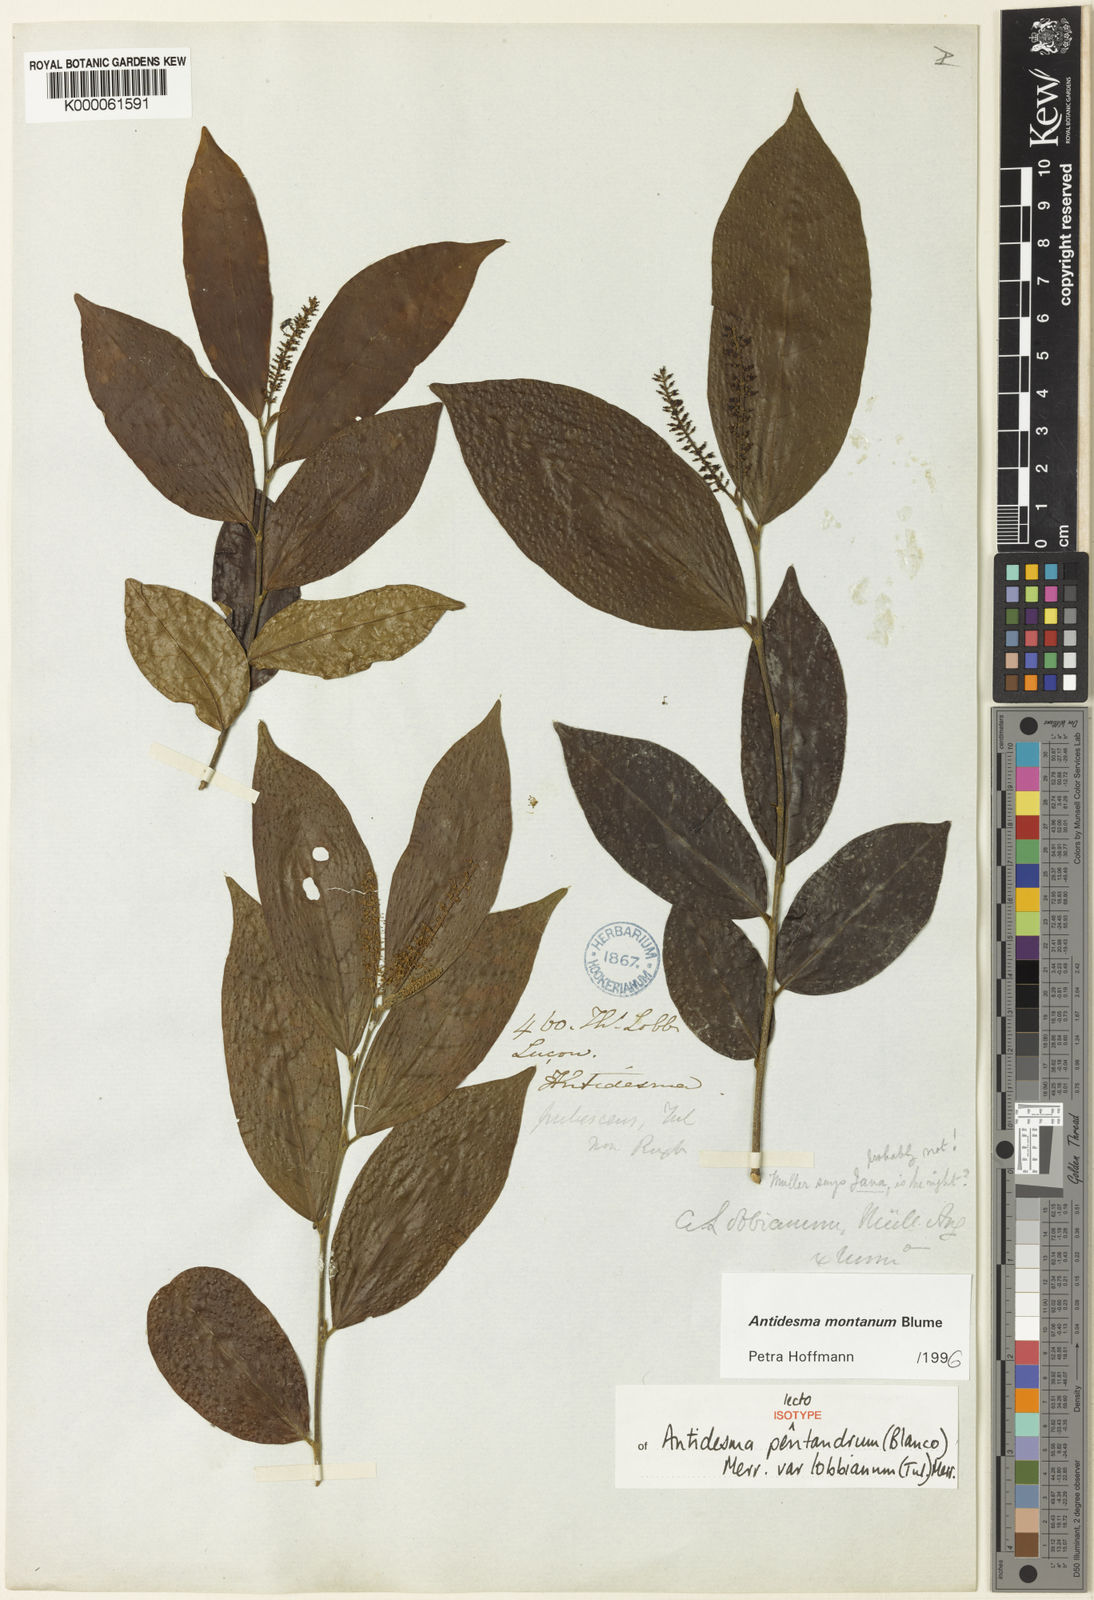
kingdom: Plantae
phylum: Tracheophyta
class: Magnoliopsida
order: Malpighiales
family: Phyllanthaceae
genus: Antidesma
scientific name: Antidesma montanum
